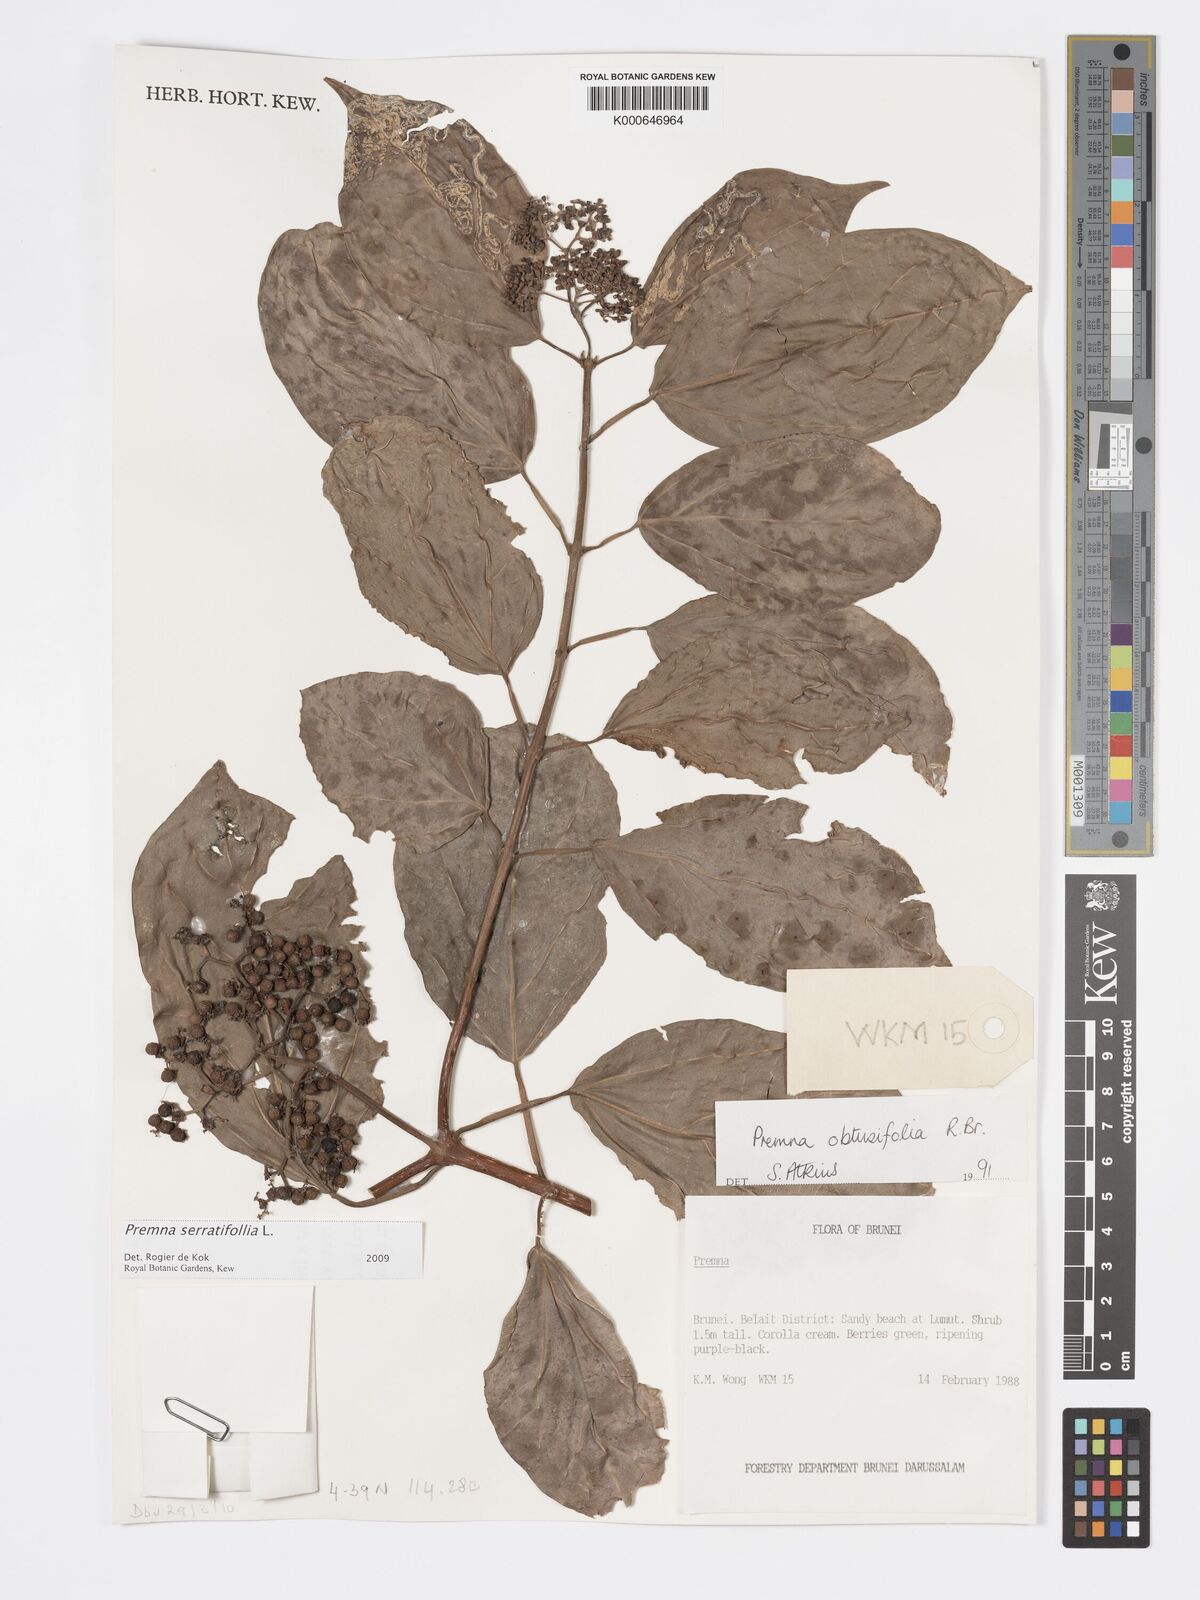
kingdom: Plantae
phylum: Tracheophyta
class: Magnoliopsida
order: Lamiales
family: Lamiaceae
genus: Premna
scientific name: Premna serratifolia
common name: Bastard guelder
